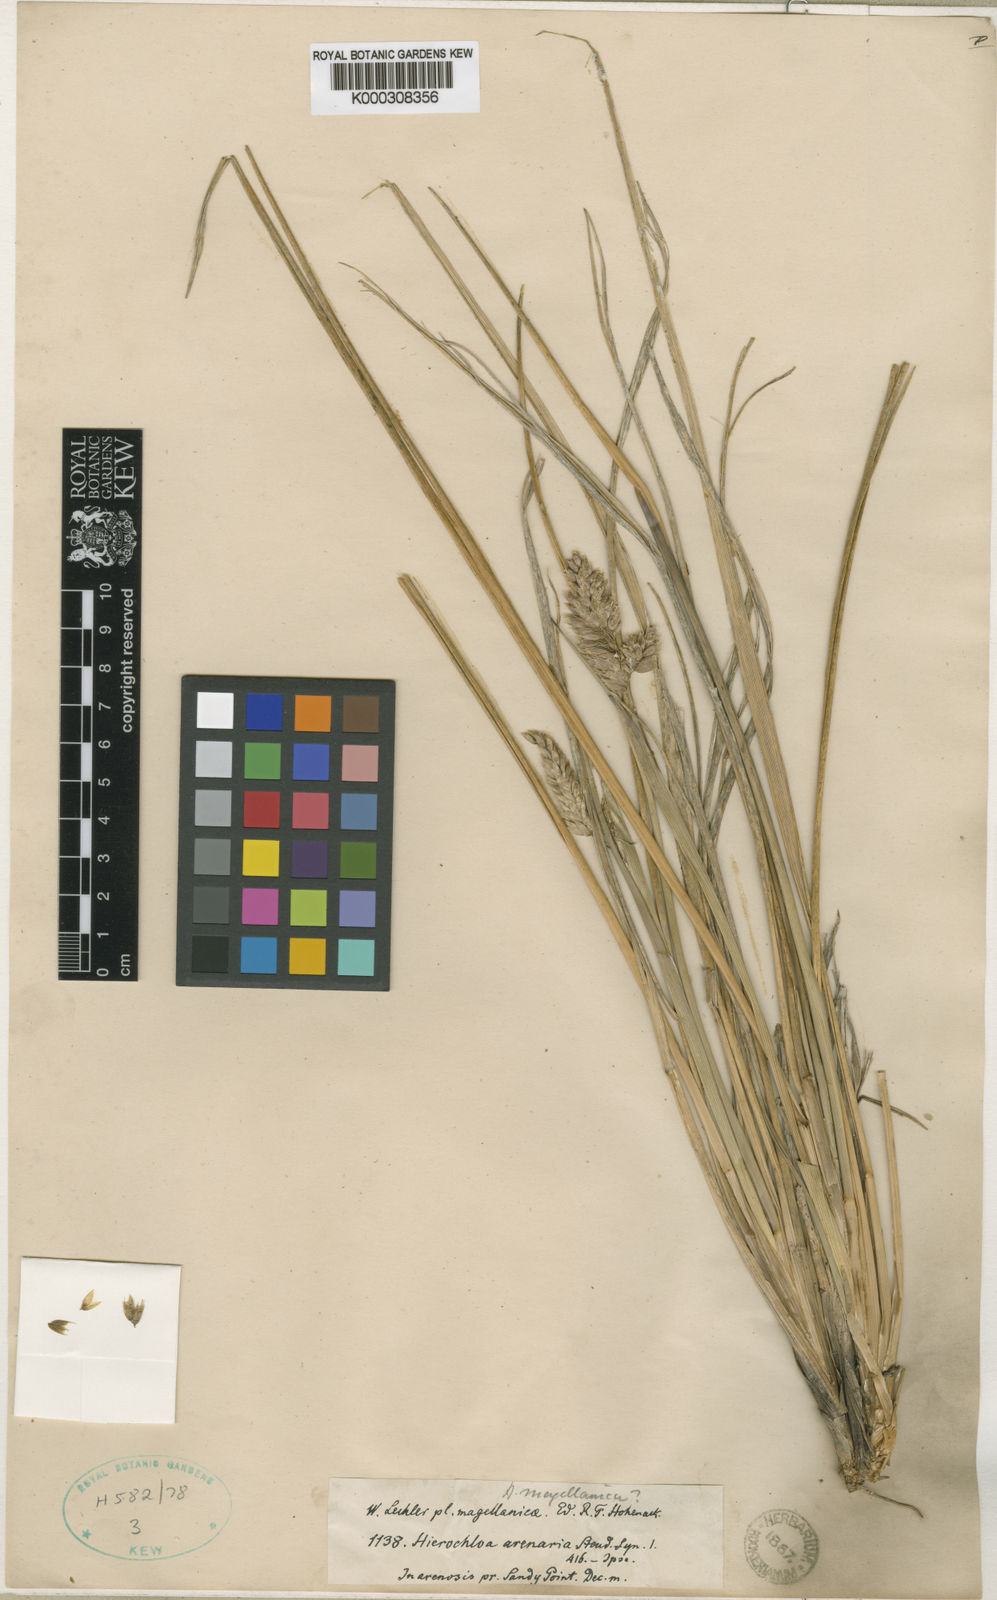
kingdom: Plantae
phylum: Tracheophyta
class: Liliopsida
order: Poales
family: Poaceae
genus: Anthoxanthum
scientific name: Anthoxanthum redolens
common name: Sweet holy grass
